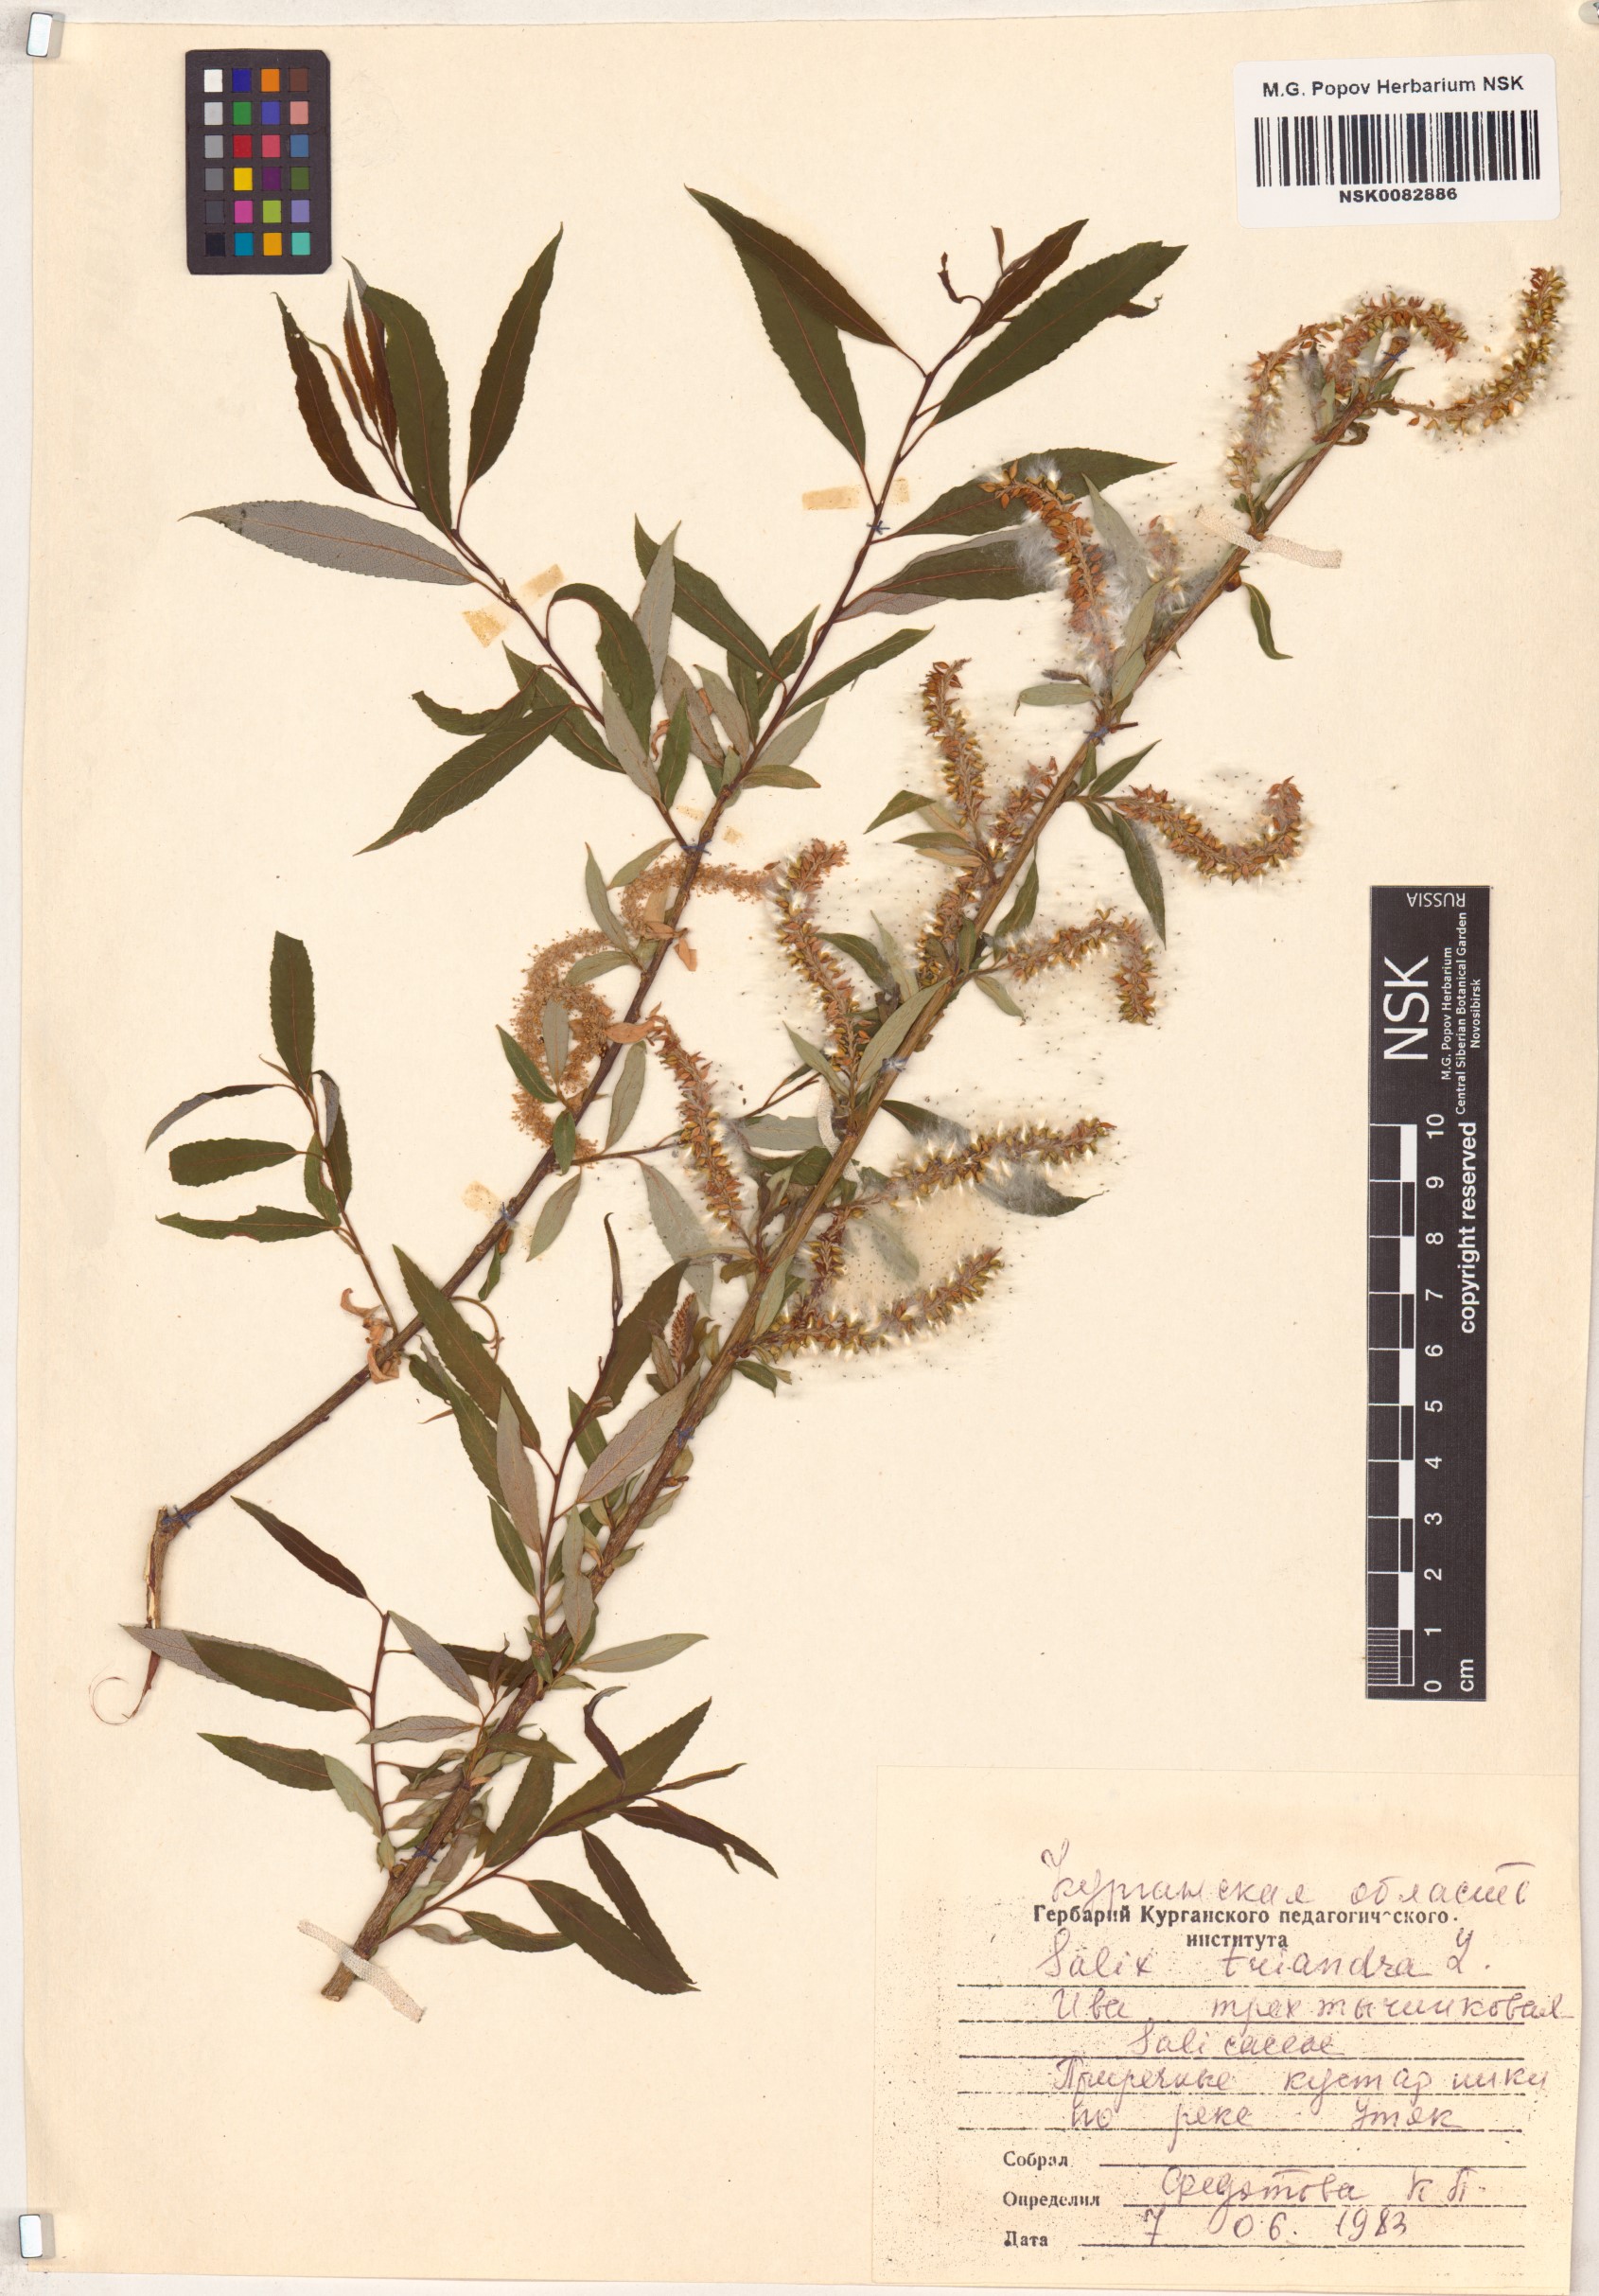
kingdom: Plantae
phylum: Tracheophyta
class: Magnoliopsida
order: Malpighiales
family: Salicaceae
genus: Salix
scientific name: Salix triandra
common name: Almond willow
